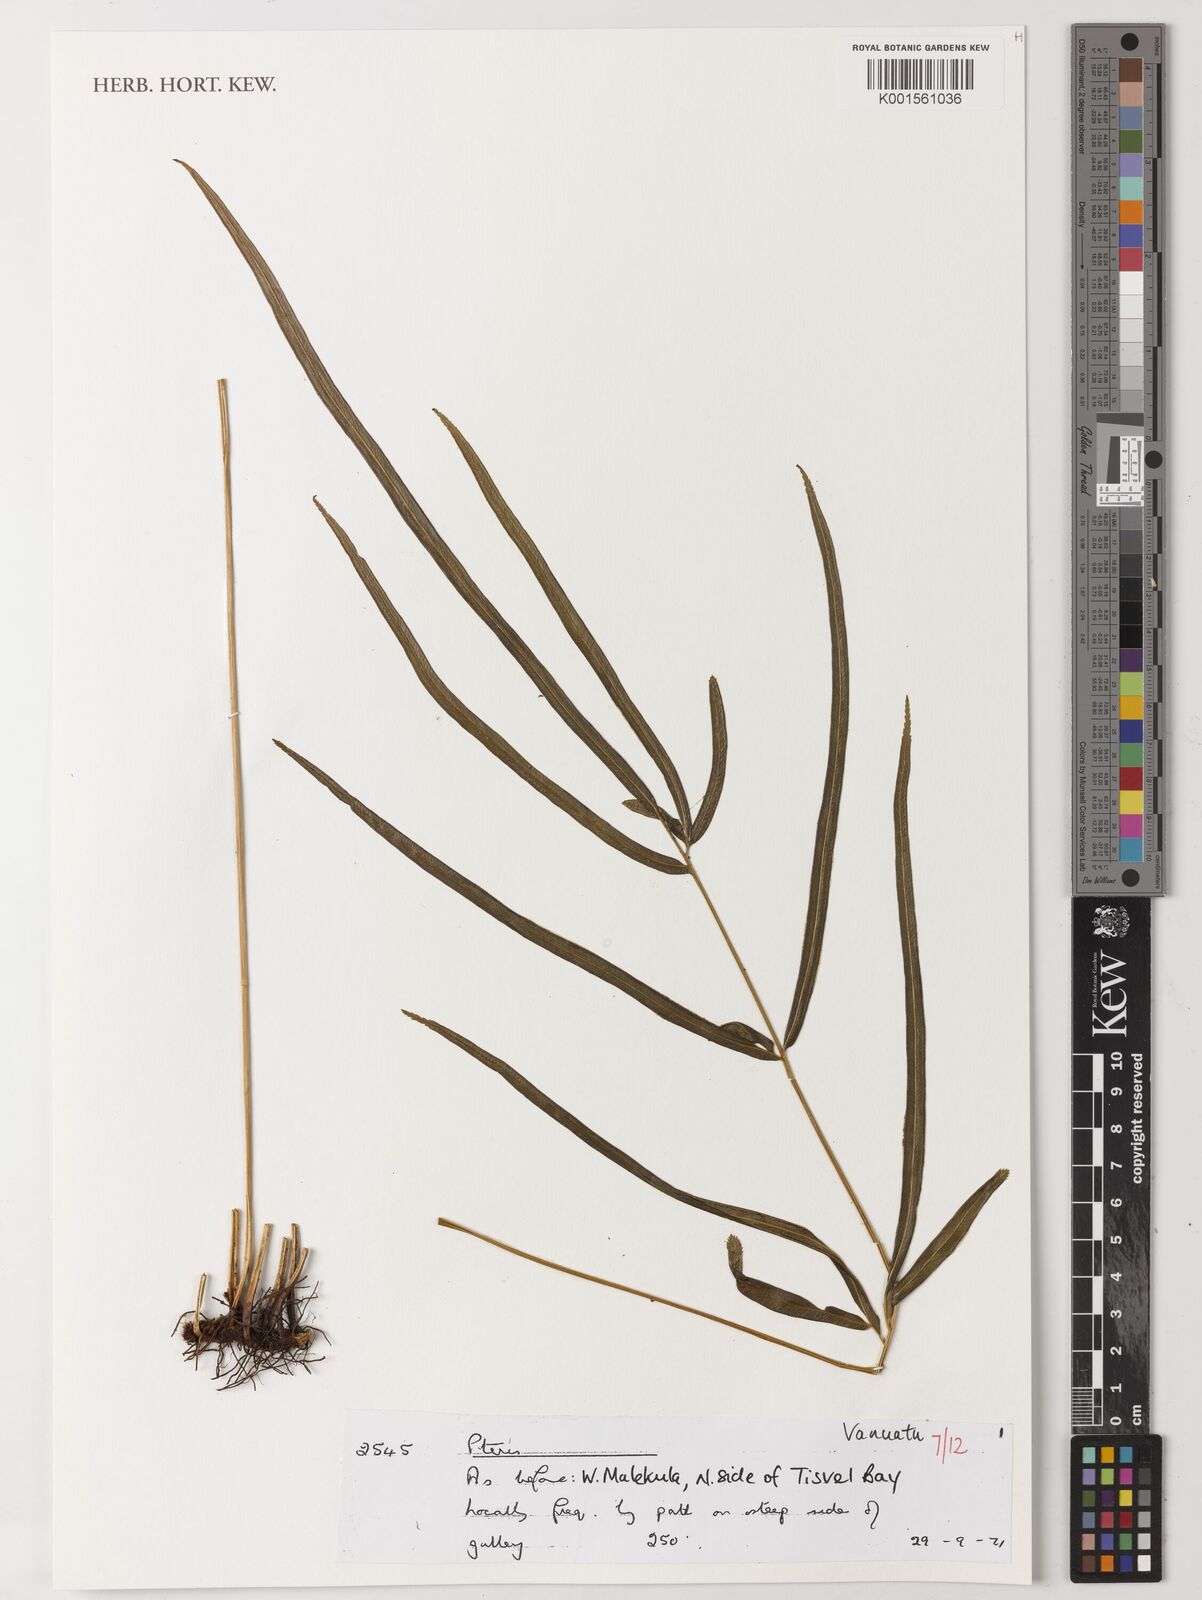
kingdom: Plantae
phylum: Tracheophyta
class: Polypodiopsida
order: Polypodiales
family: Pteridaceae
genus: Pteris
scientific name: Pteris
